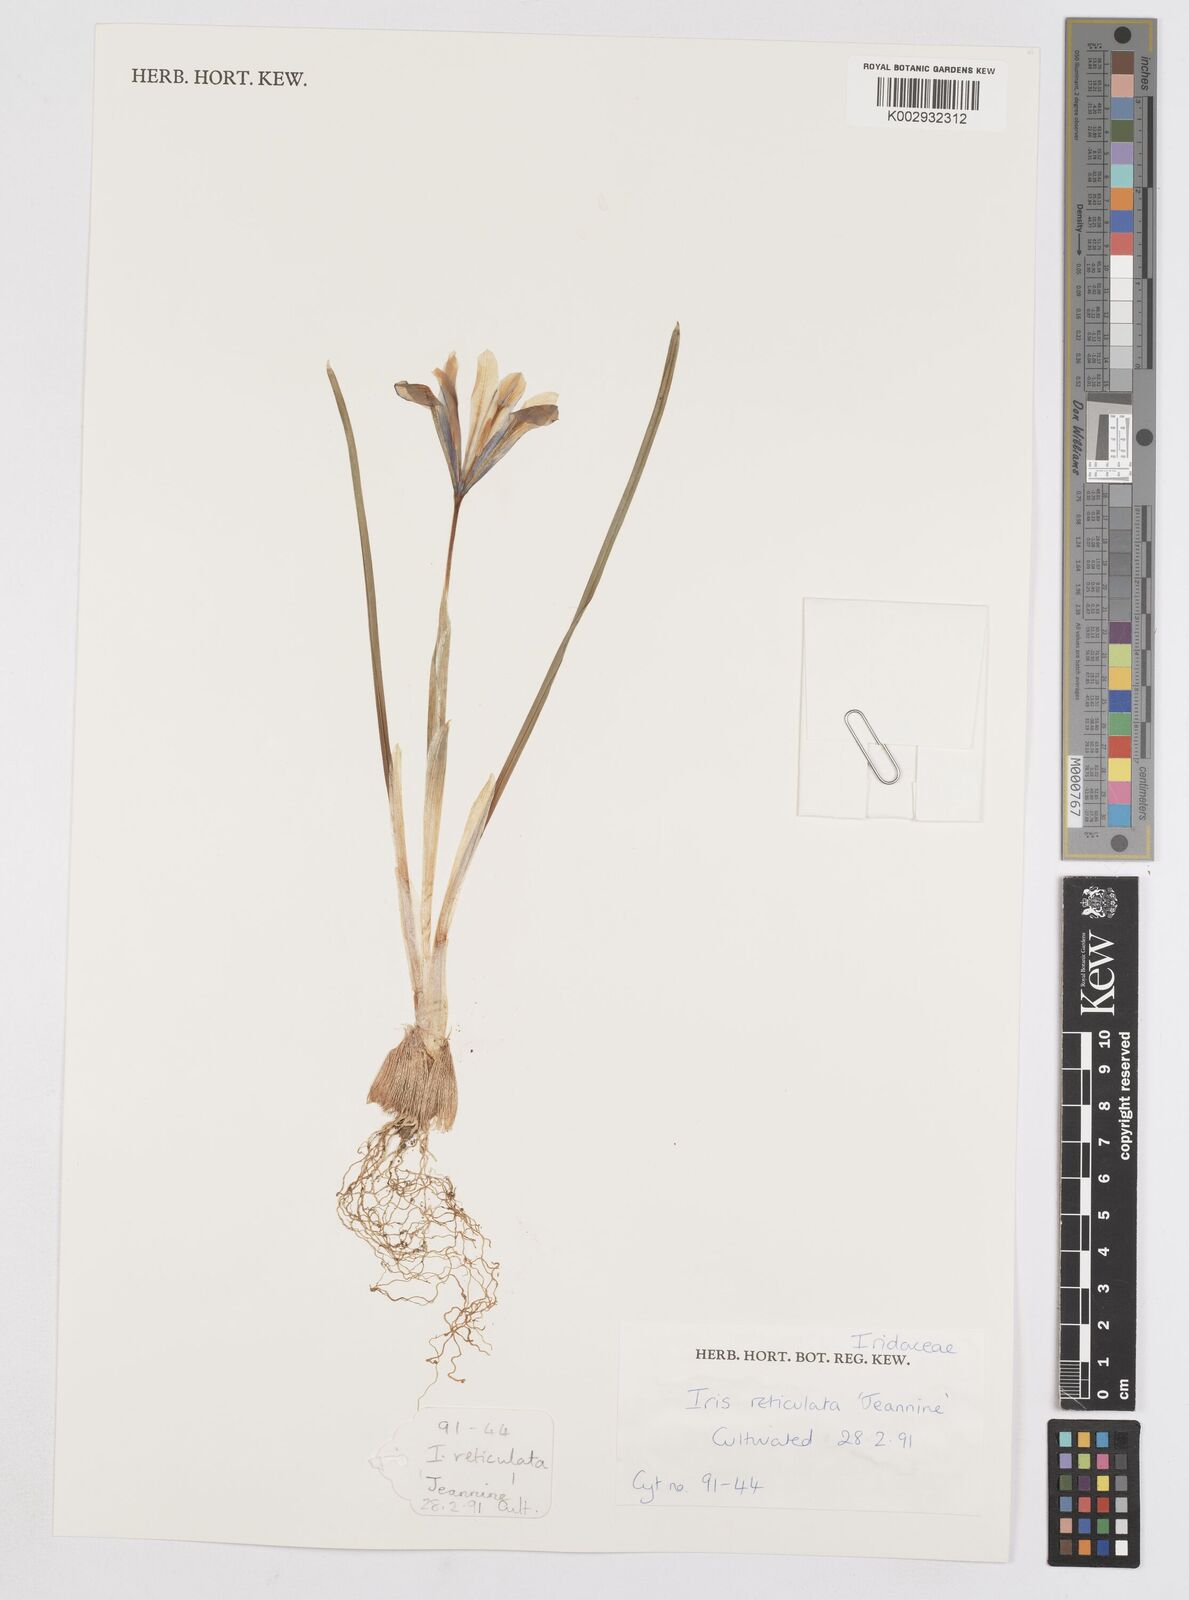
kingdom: Plantae
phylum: Tracheophyta
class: Liliopsida
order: Asparagales
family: Iridaceae
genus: Iris
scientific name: Iris reticulata
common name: Netted iris
